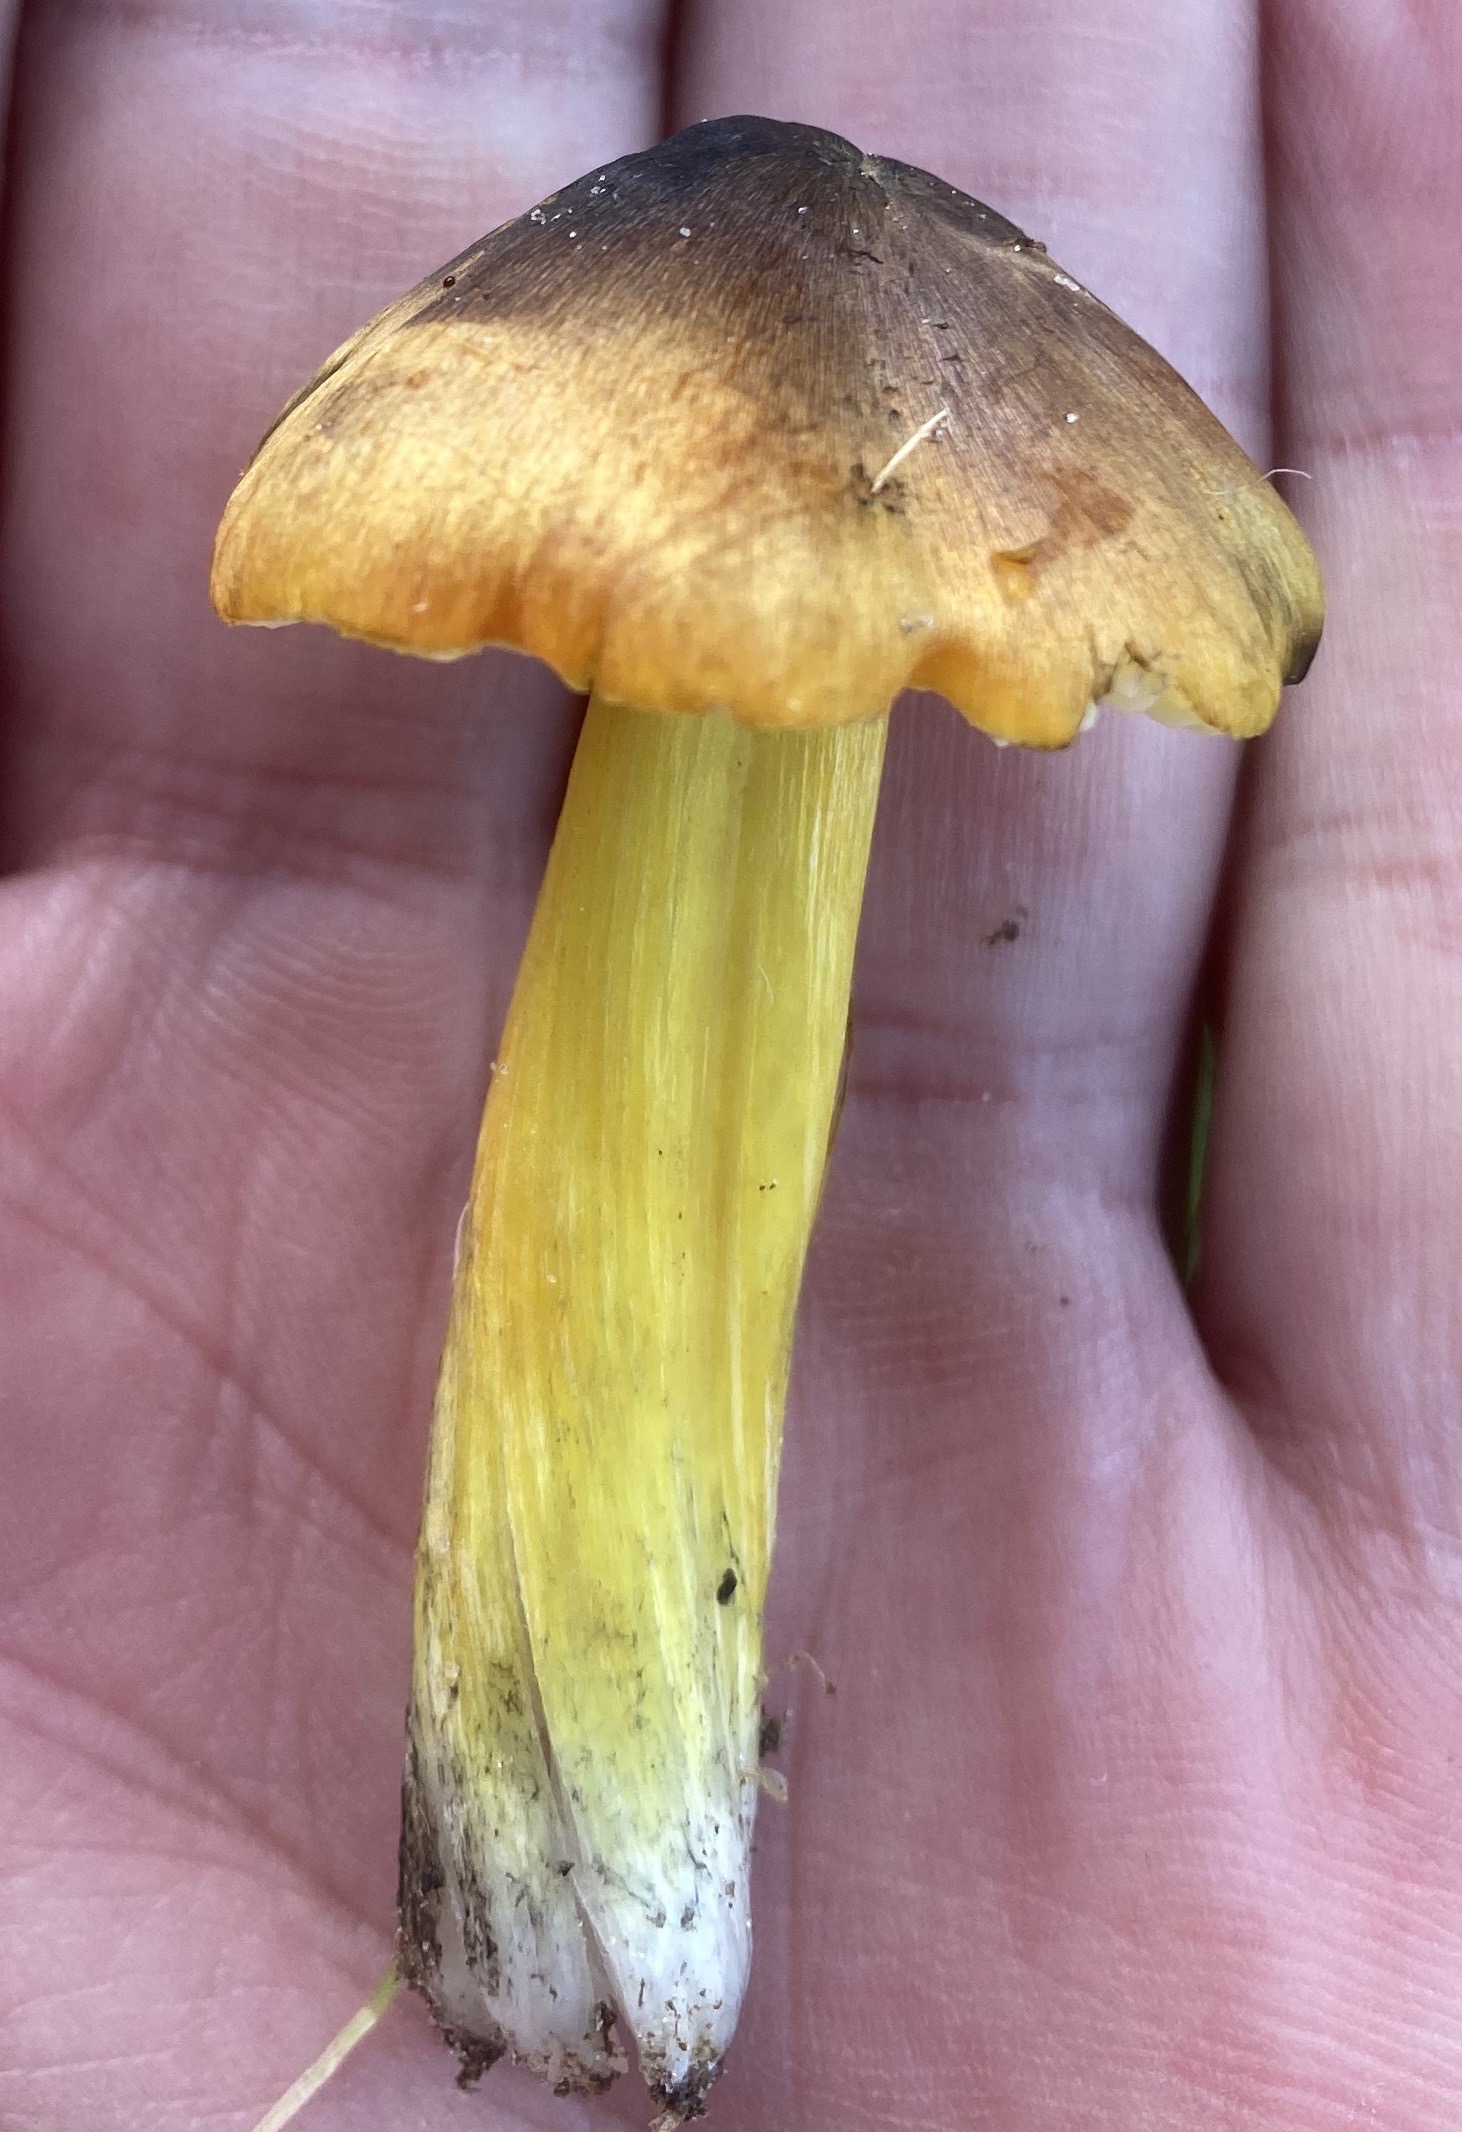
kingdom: Fungi
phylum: Basidiomycota
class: Agaricomycetes
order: Agaricales
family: Hygrophoraceae
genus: Hygrocybe
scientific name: Hygrocybe conica
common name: kegle-vokshat
